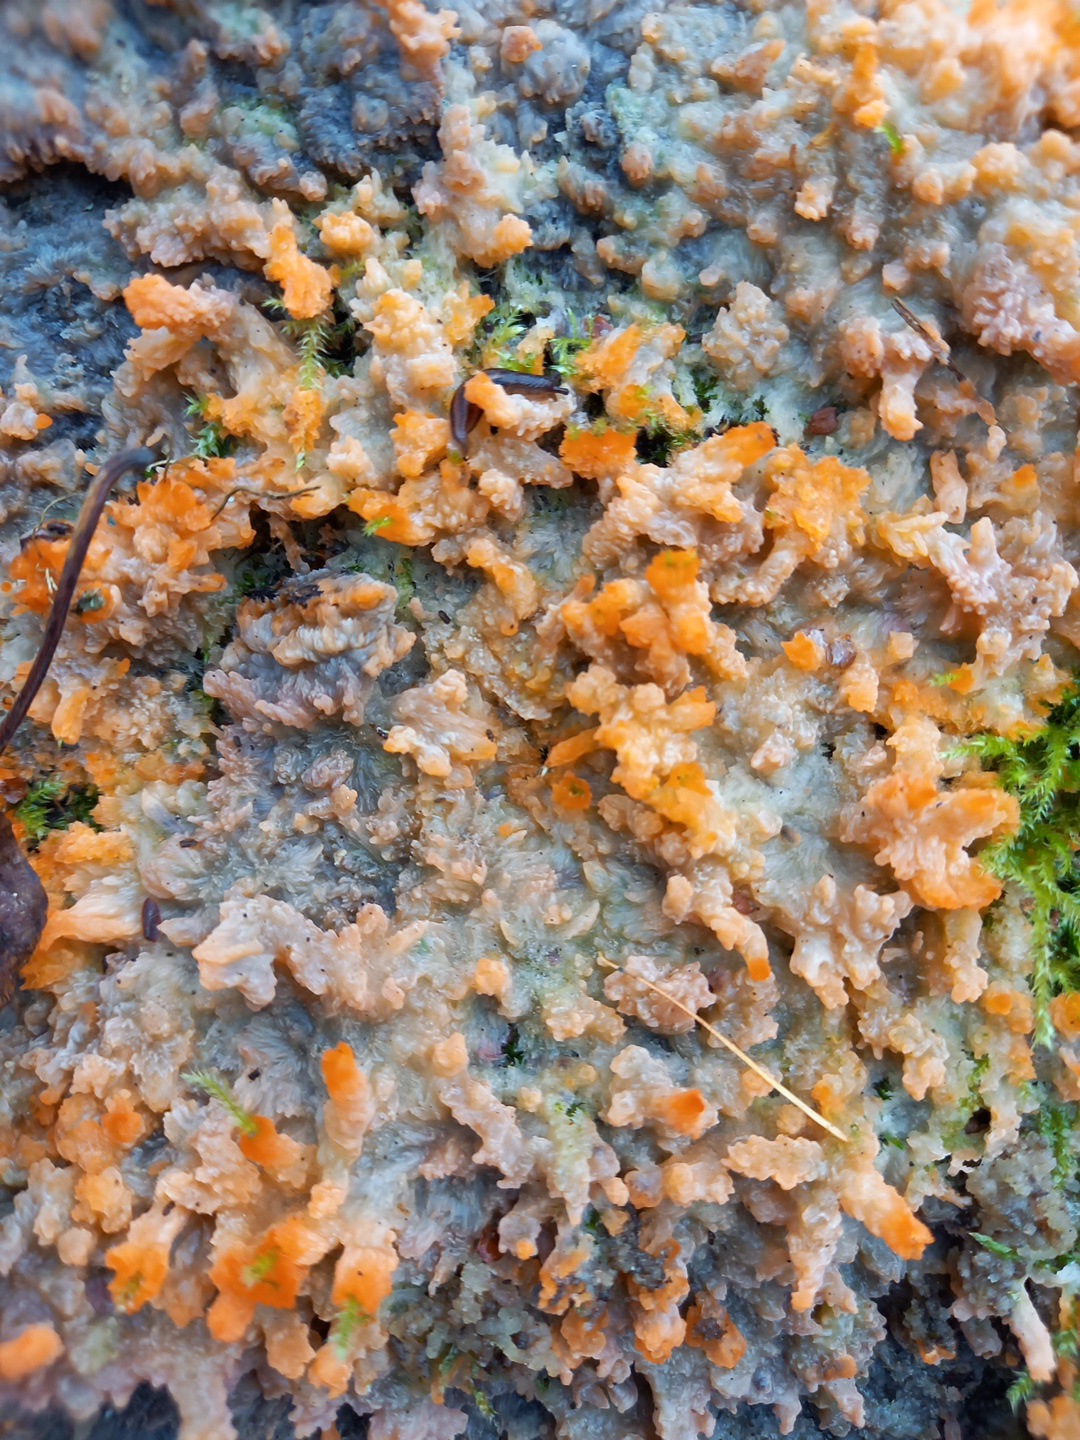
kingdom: Fungi
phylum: Basidiomycota
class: Agaricomycetes
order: Polyporales
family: Meruliaceae
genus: Phlebia
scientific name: Phlebia radiata
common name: stråle-åresvamp
